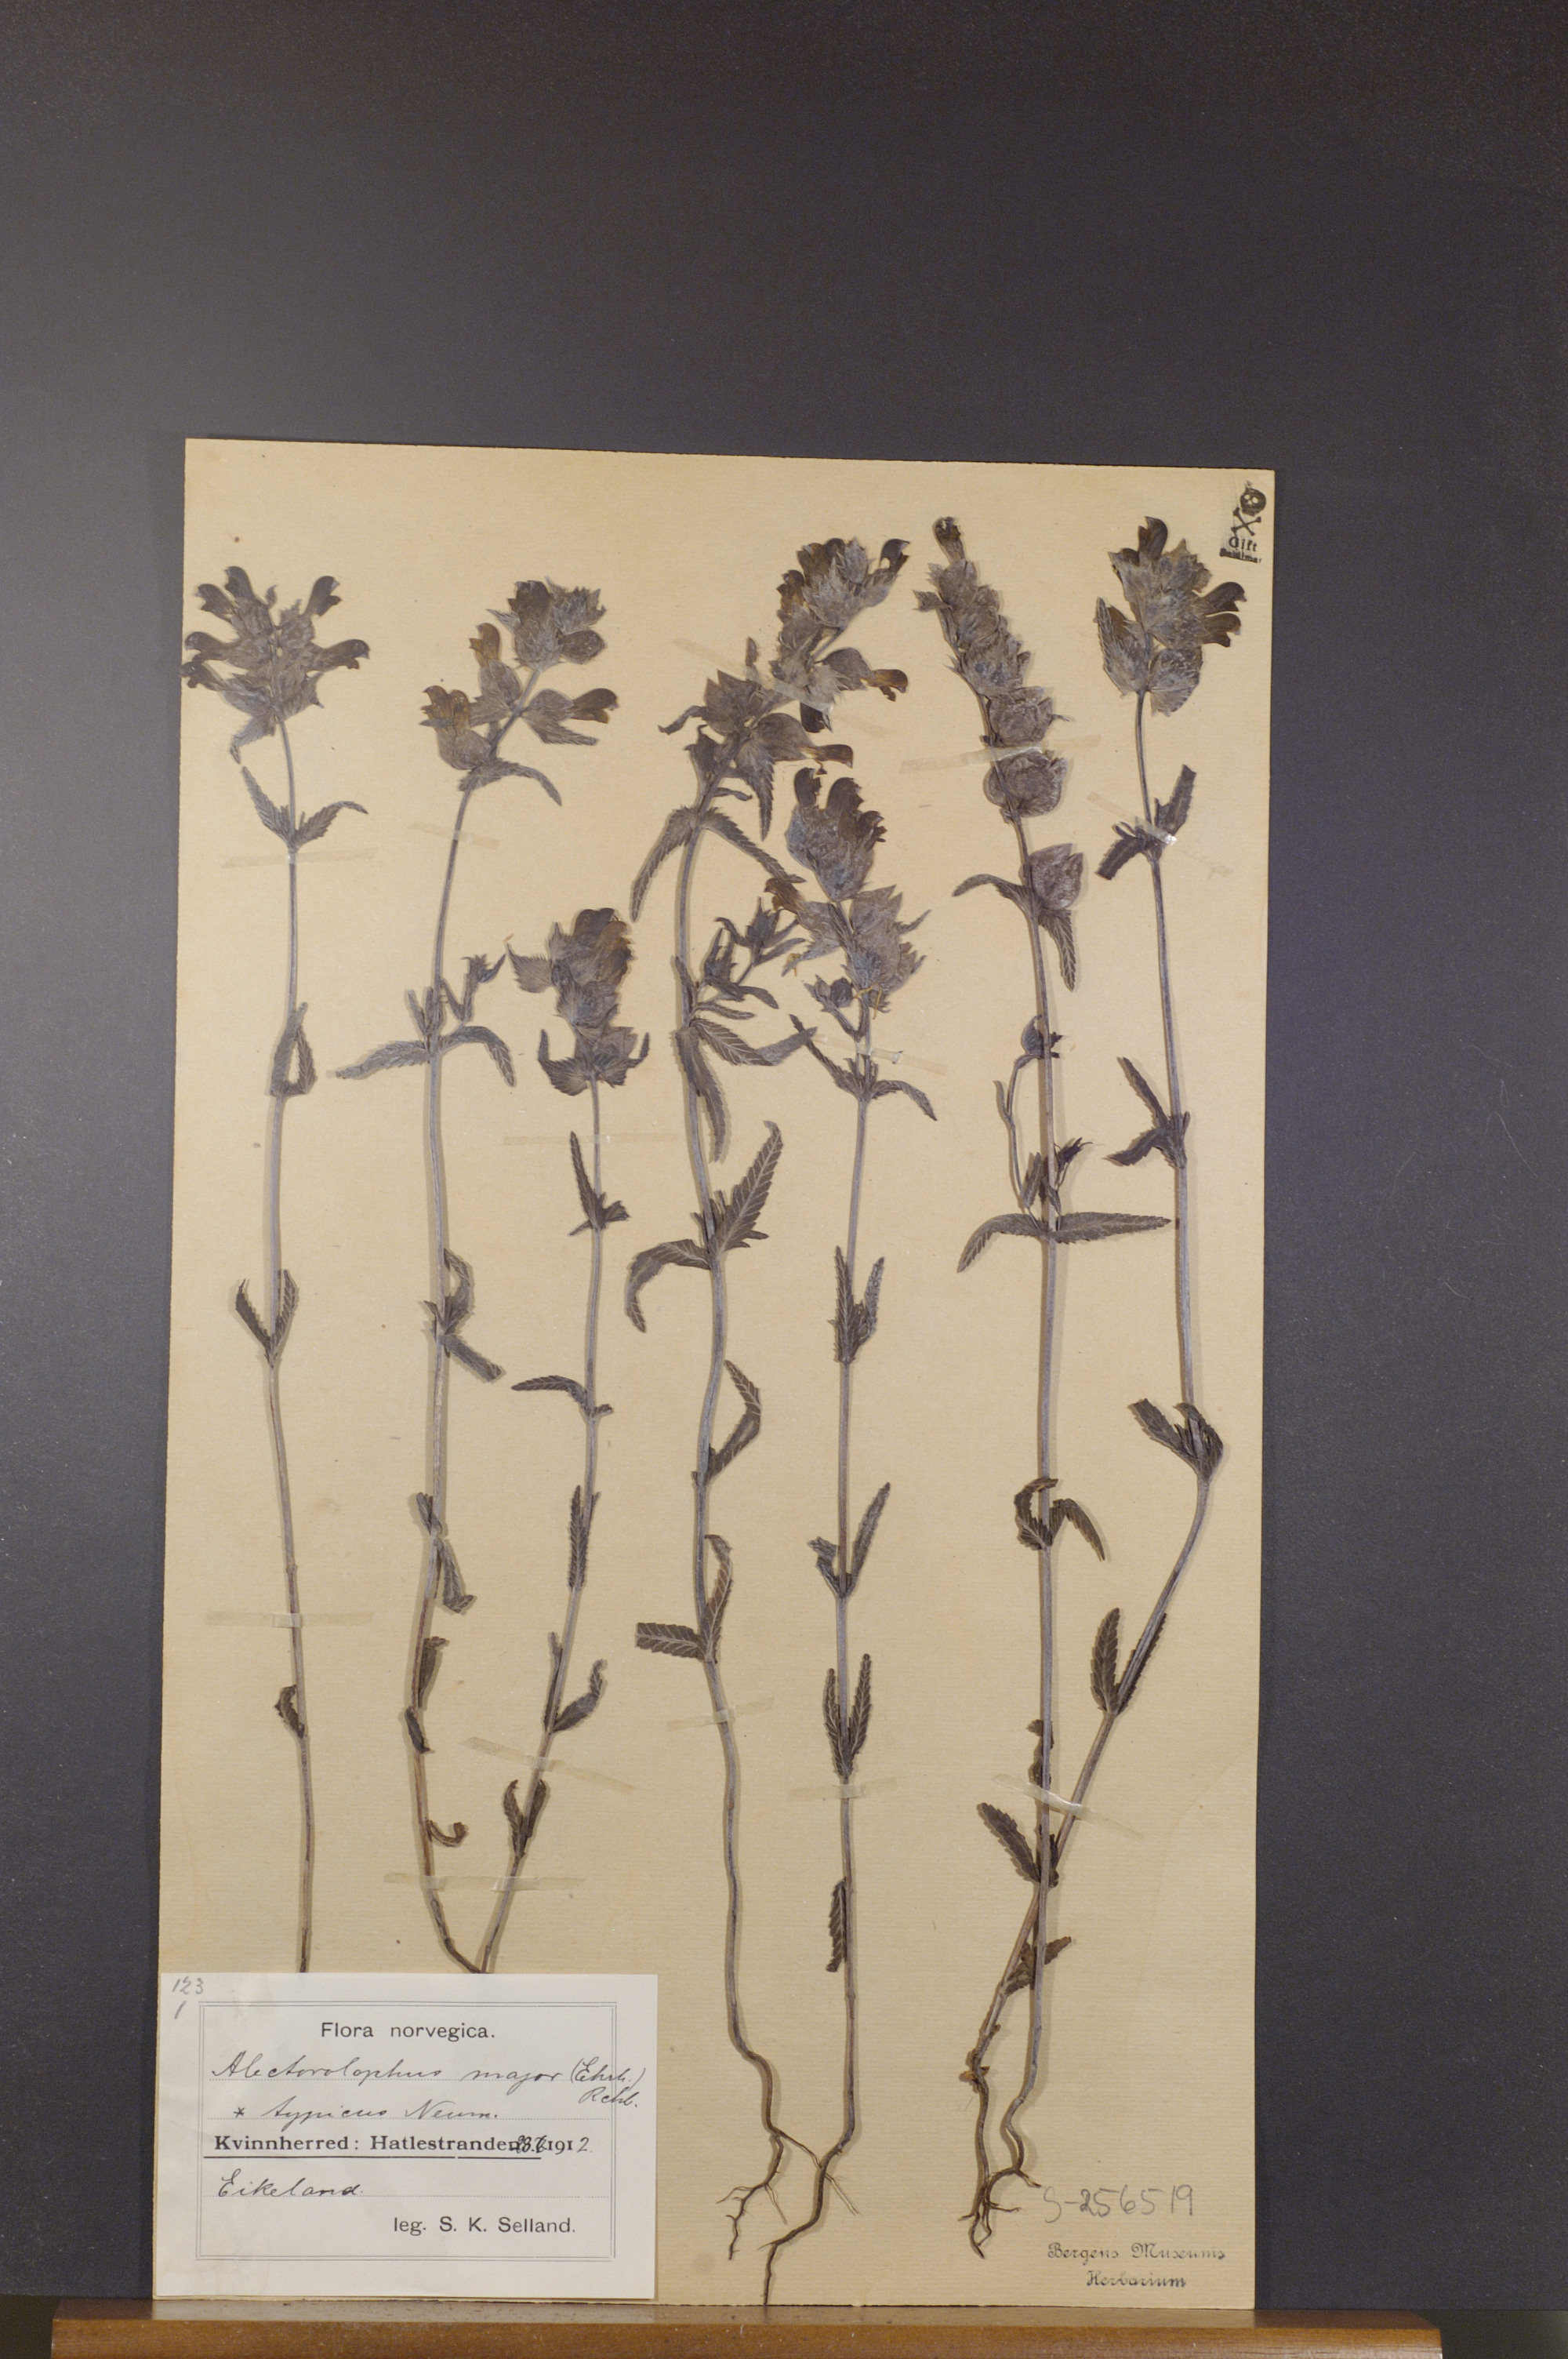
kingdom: Plantae
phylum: Tracheophyta
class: Magnoliopsida
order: Lamiales
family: Orobanchaceae
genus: Rhinanthus
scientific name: Rhinanthus serotinus
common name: Late-flowering yellow rattle
